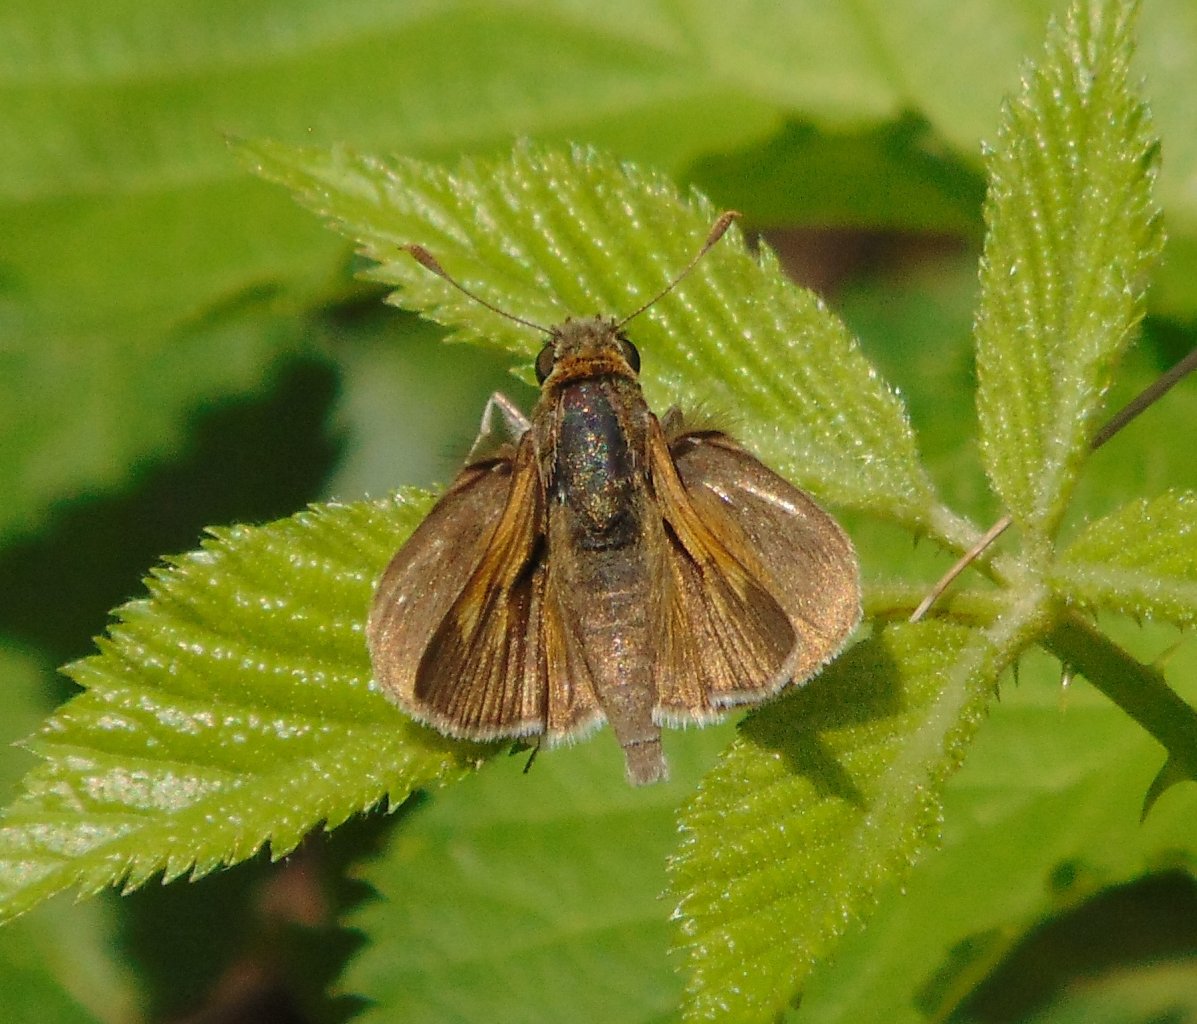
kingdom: Animalia
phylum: Arthropoda
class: Insecta
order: Lepidoptera
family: Hesperiidae
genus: Polites
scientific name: Polites themistocles
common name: Tawny-edged Skipper
